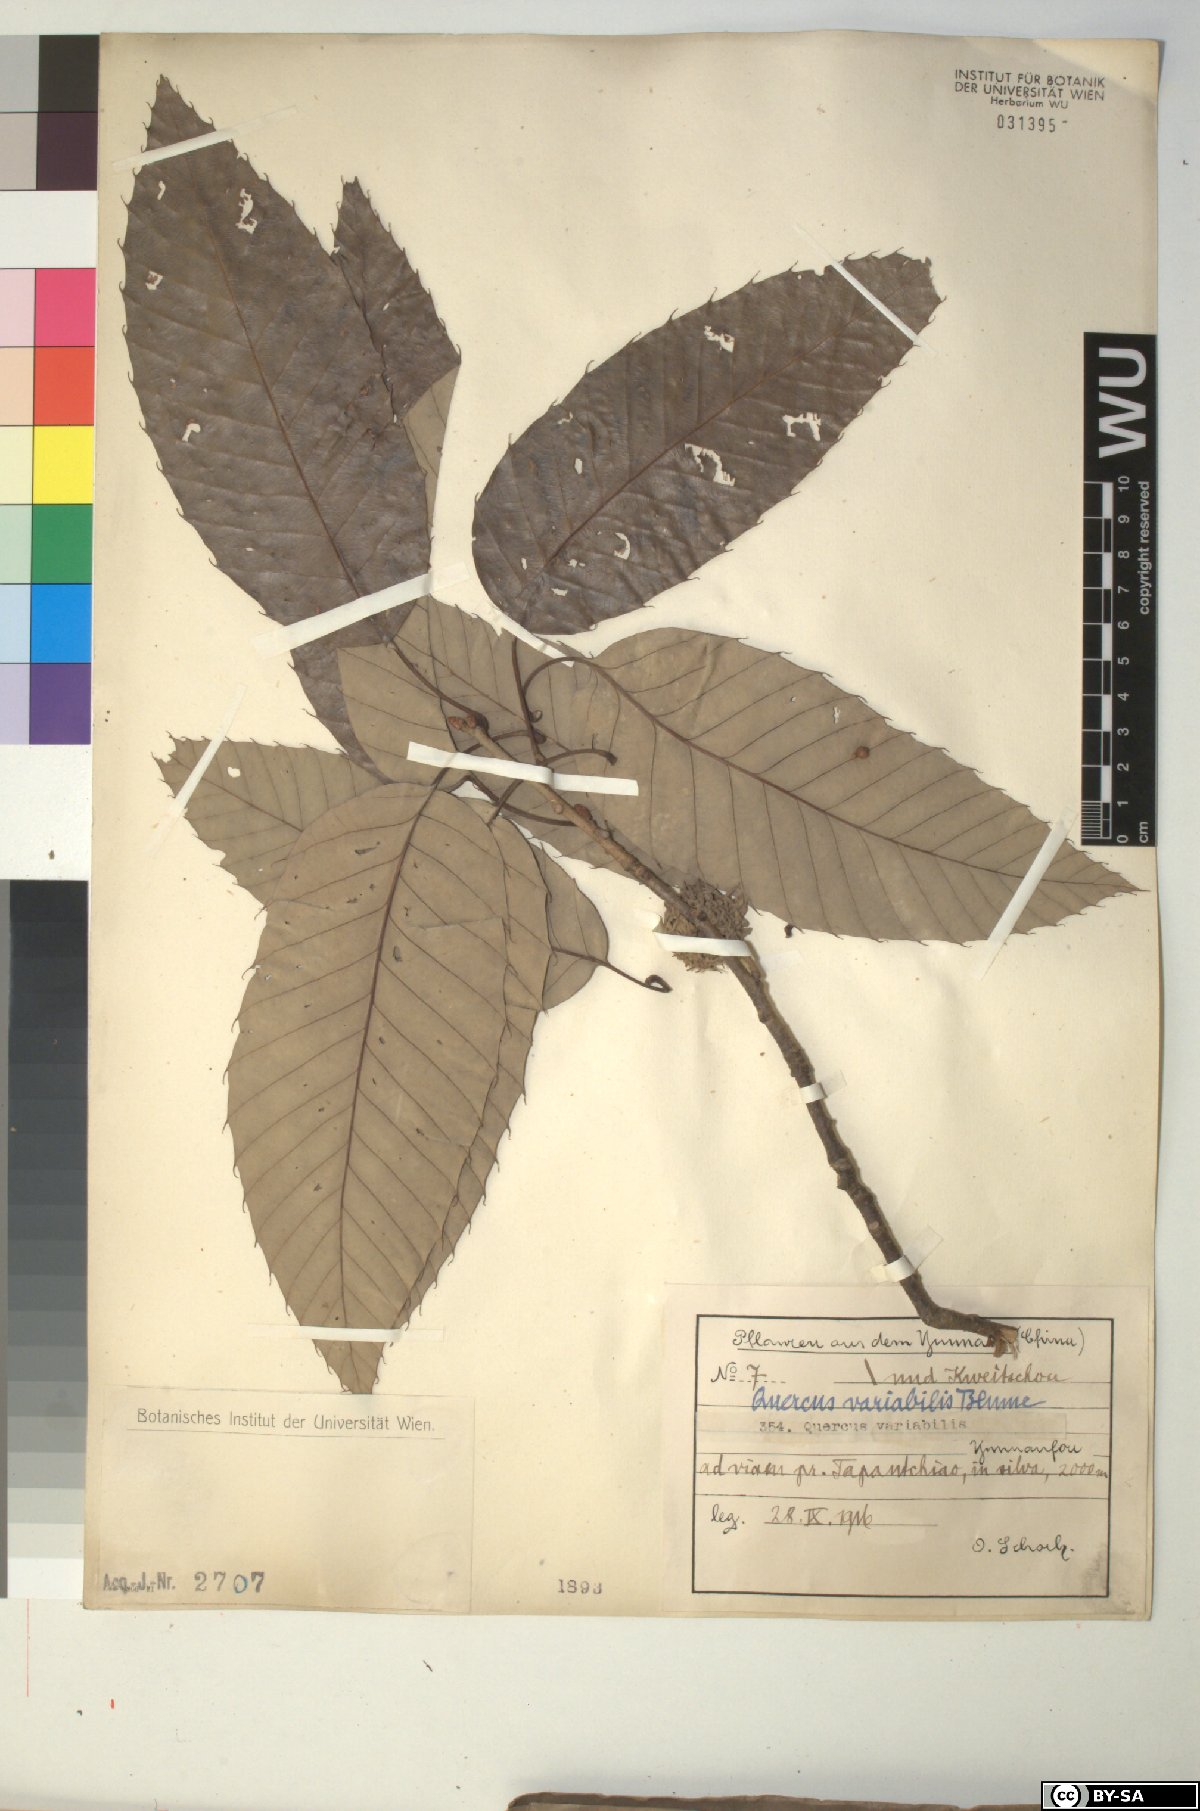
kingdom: Plantae
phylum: Tracheophyta
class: Magnoliopsida
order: Fagales
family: Fagaceae
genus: Quercus
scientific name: Quercus variabilis
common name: Chinese cork oak
